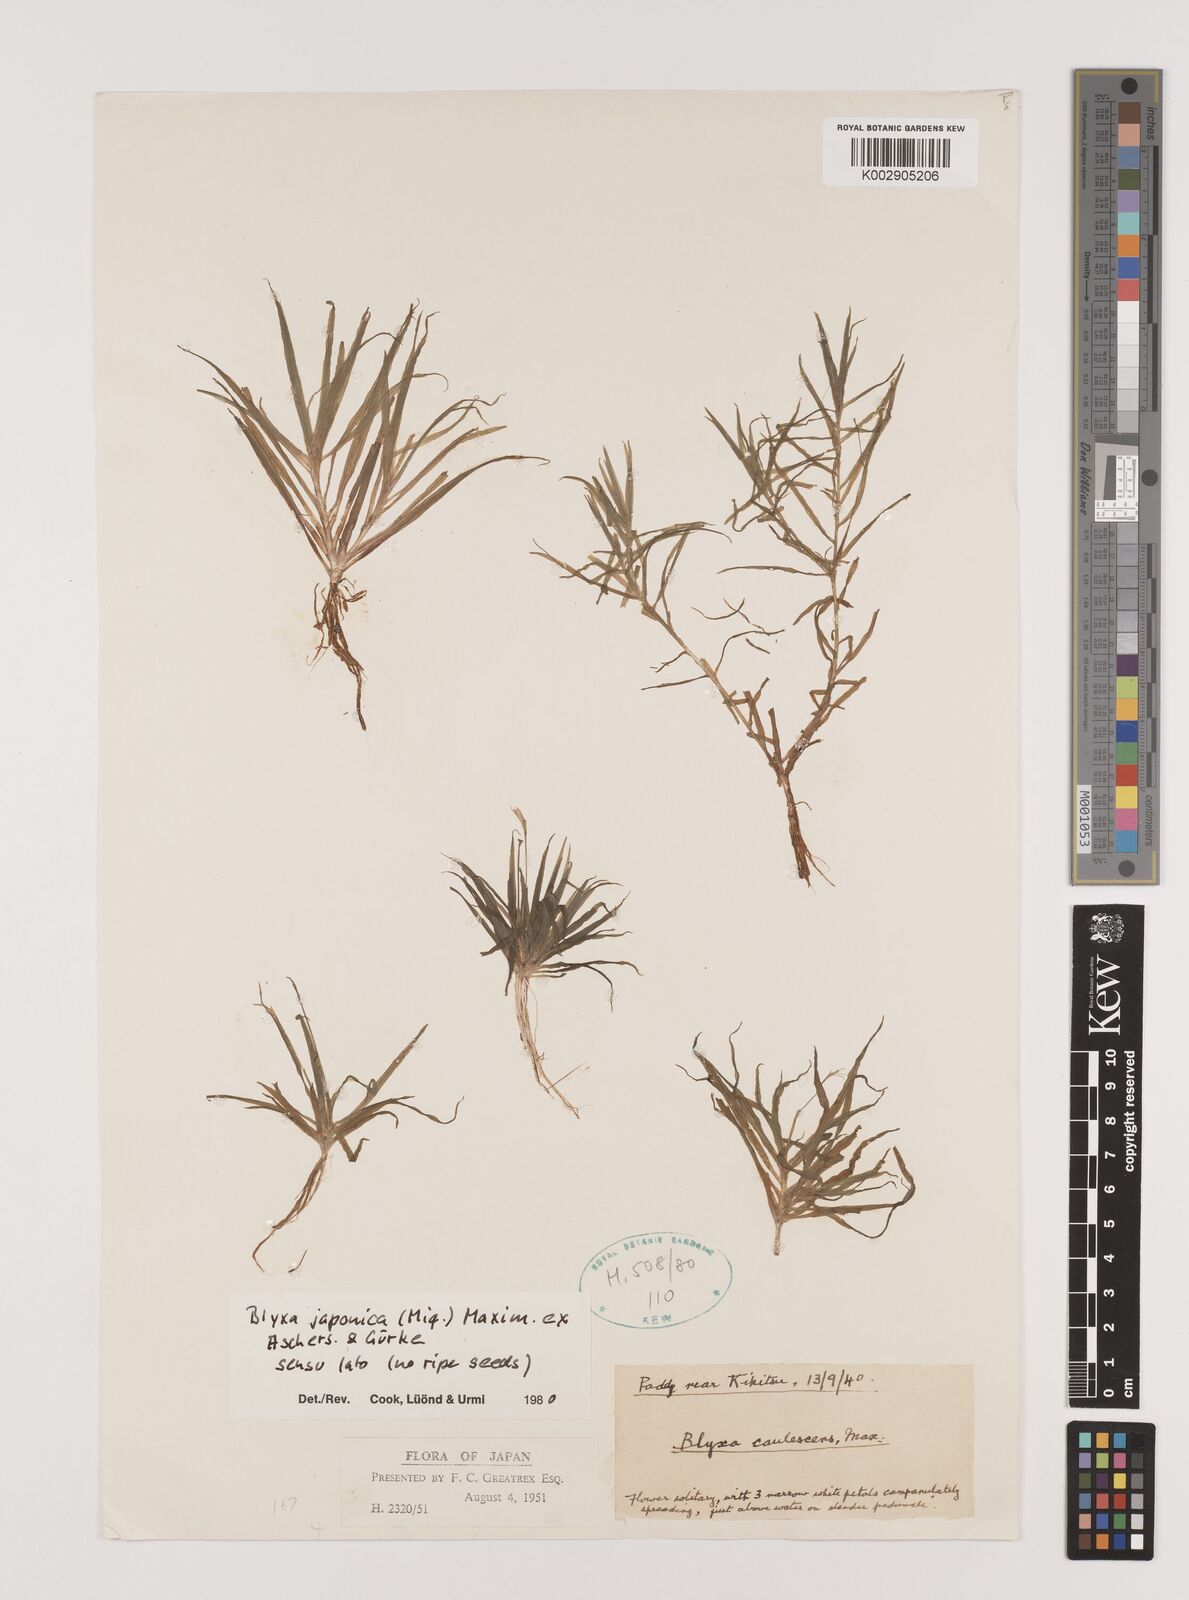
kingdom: Plantae
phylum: Tracheophyta
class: Liliopsida
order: Alismatales
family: Hydrocharitaceae
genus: Blyxa
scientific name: Blyxa japonica
